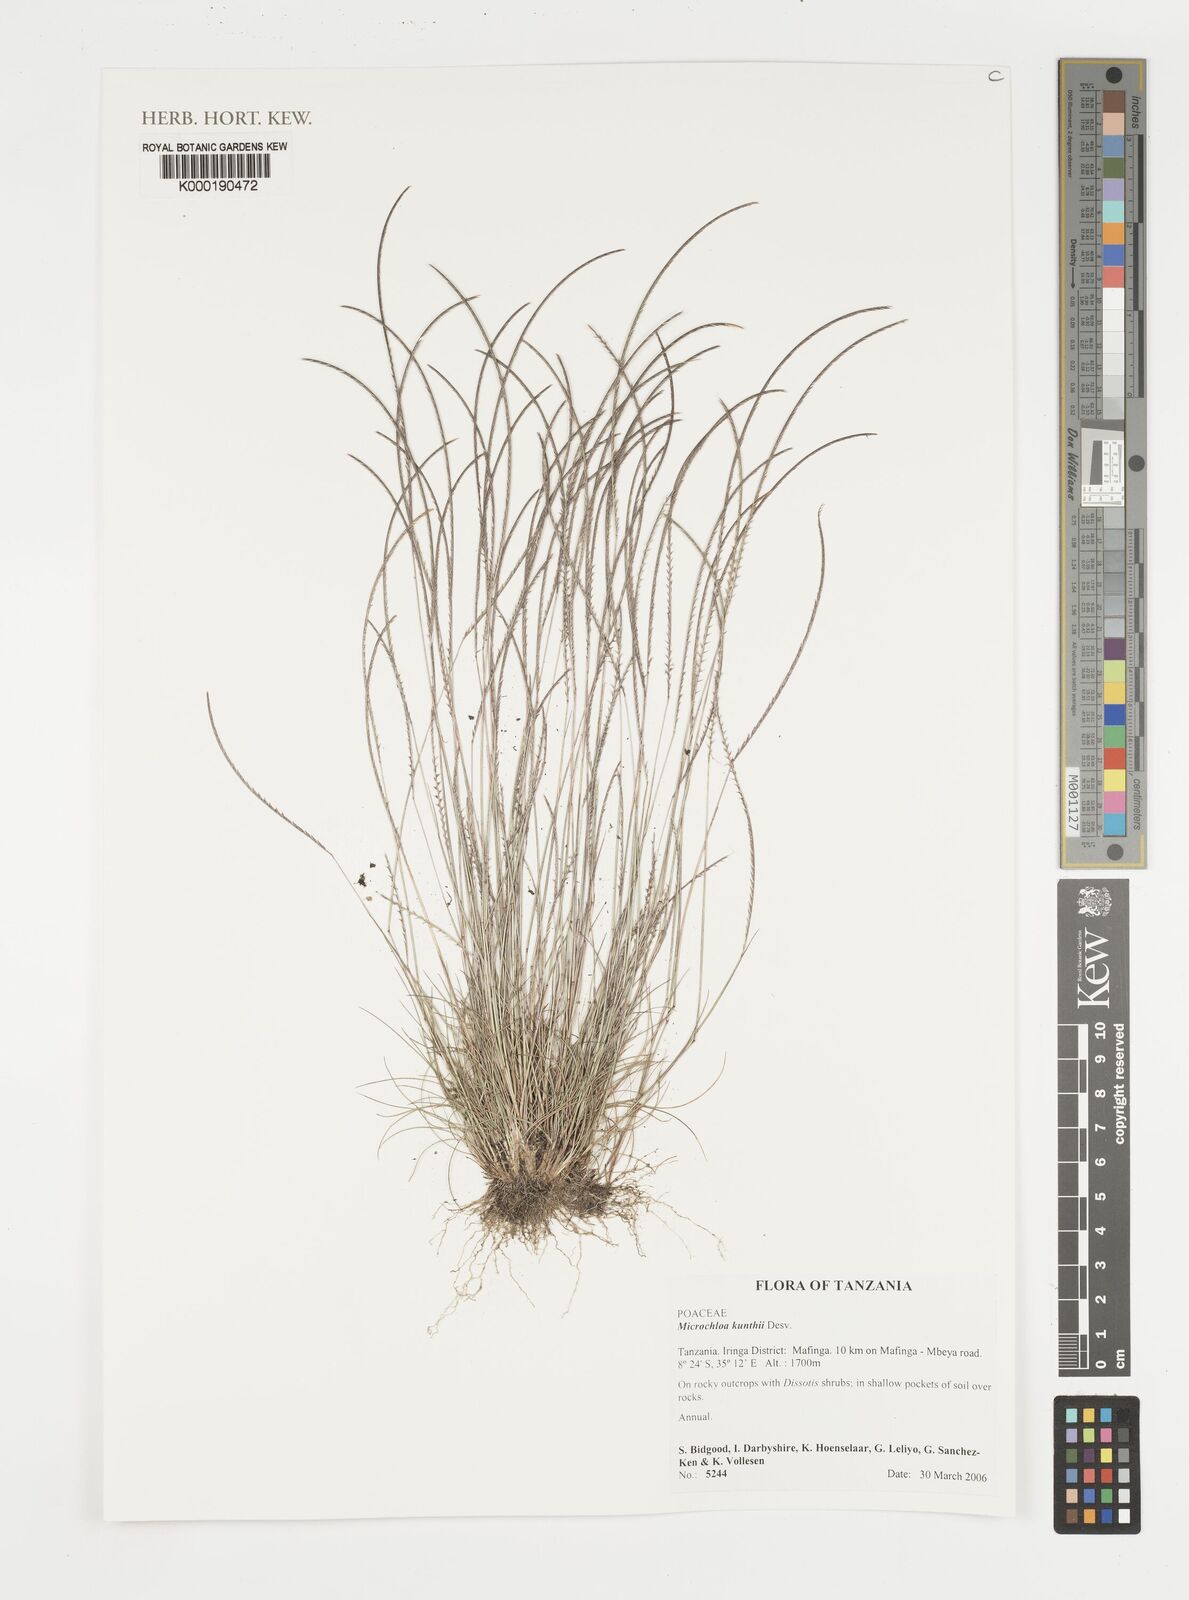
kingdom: Plantae
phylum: Tracheophyta
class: Liliopsida
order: Poales
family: Poaceae
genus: Microchloa
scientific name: Microchloa kunthii
